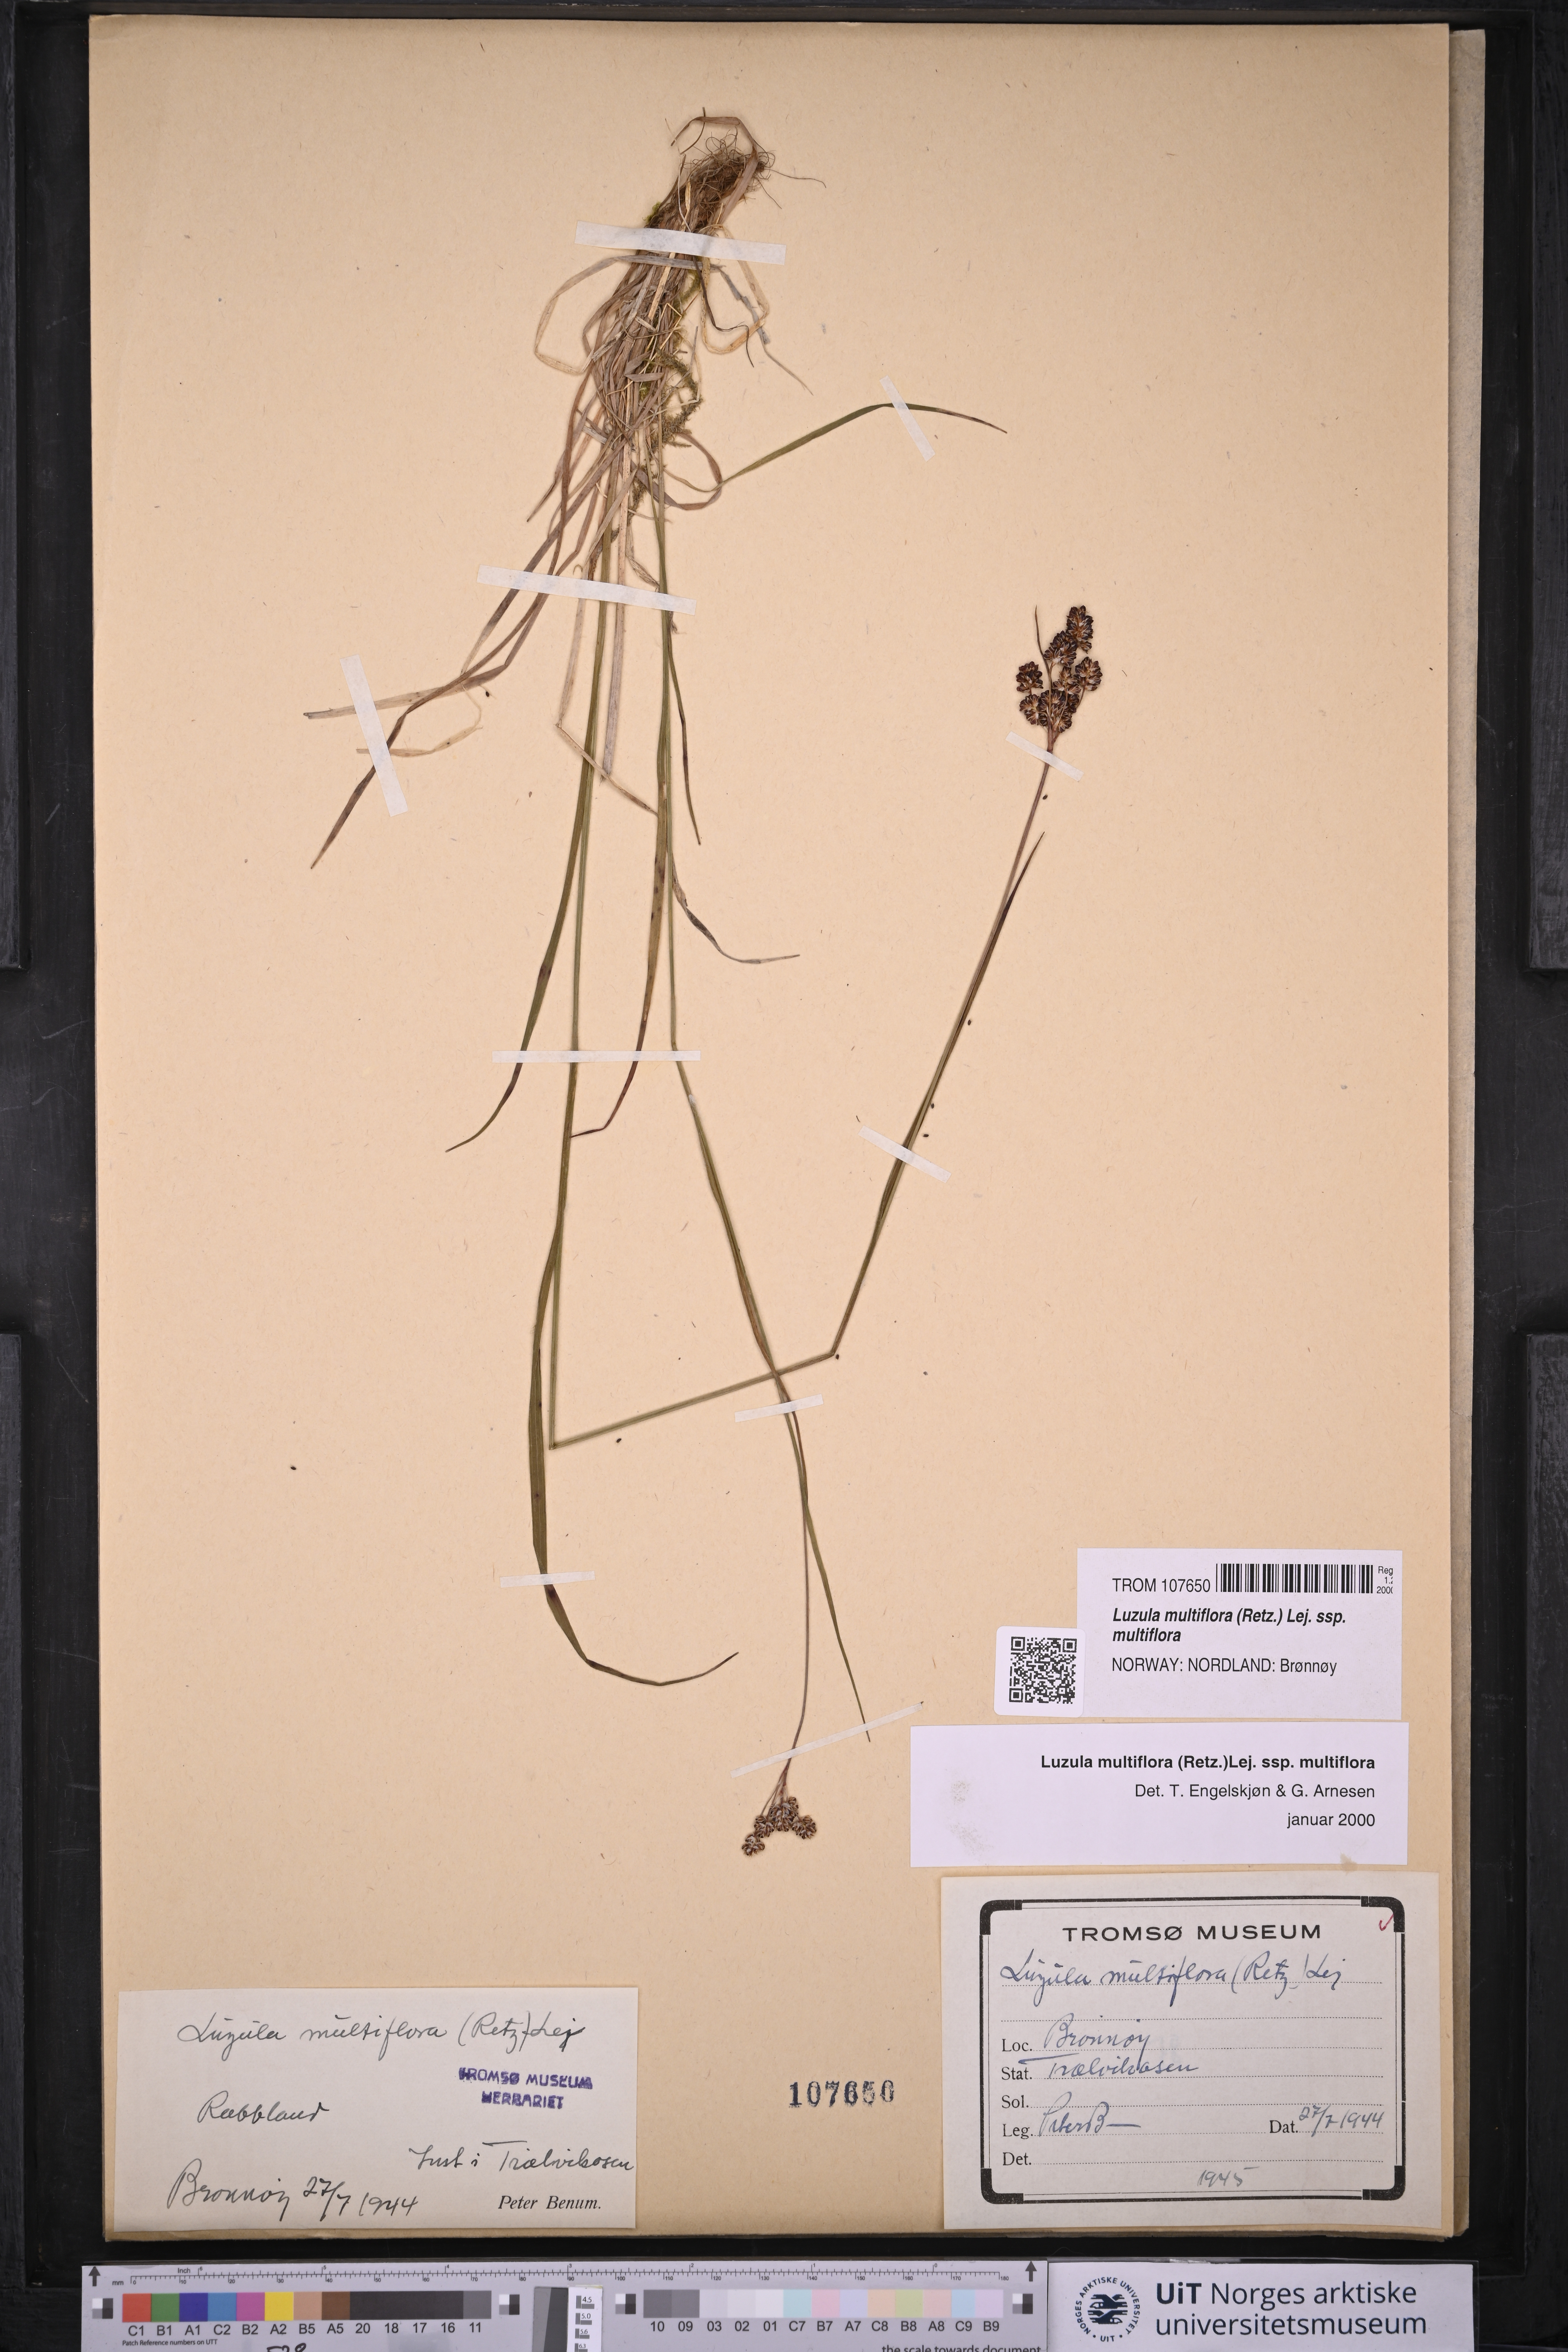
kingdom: Plantae
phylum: Tracheophyta
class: Liliopsida
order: Poales
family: Juncaceae
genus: Luzula
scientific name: Luzula multiflora
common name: Heath wood-rush
